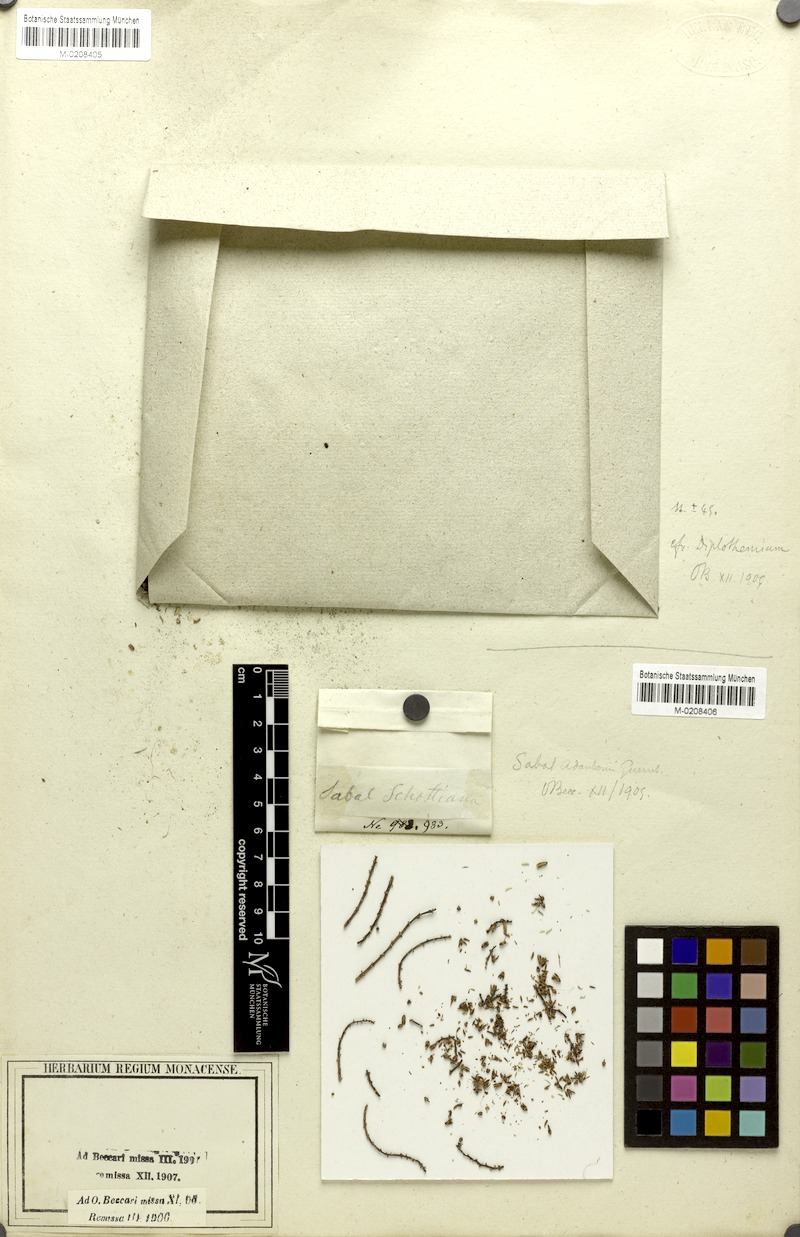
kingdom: Plantae
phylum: Tracheophyta
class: Liliopsida
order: Arecales
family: Arecaceae
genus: Sabal
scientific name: Sabal minor
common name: Dwarf palmetto
